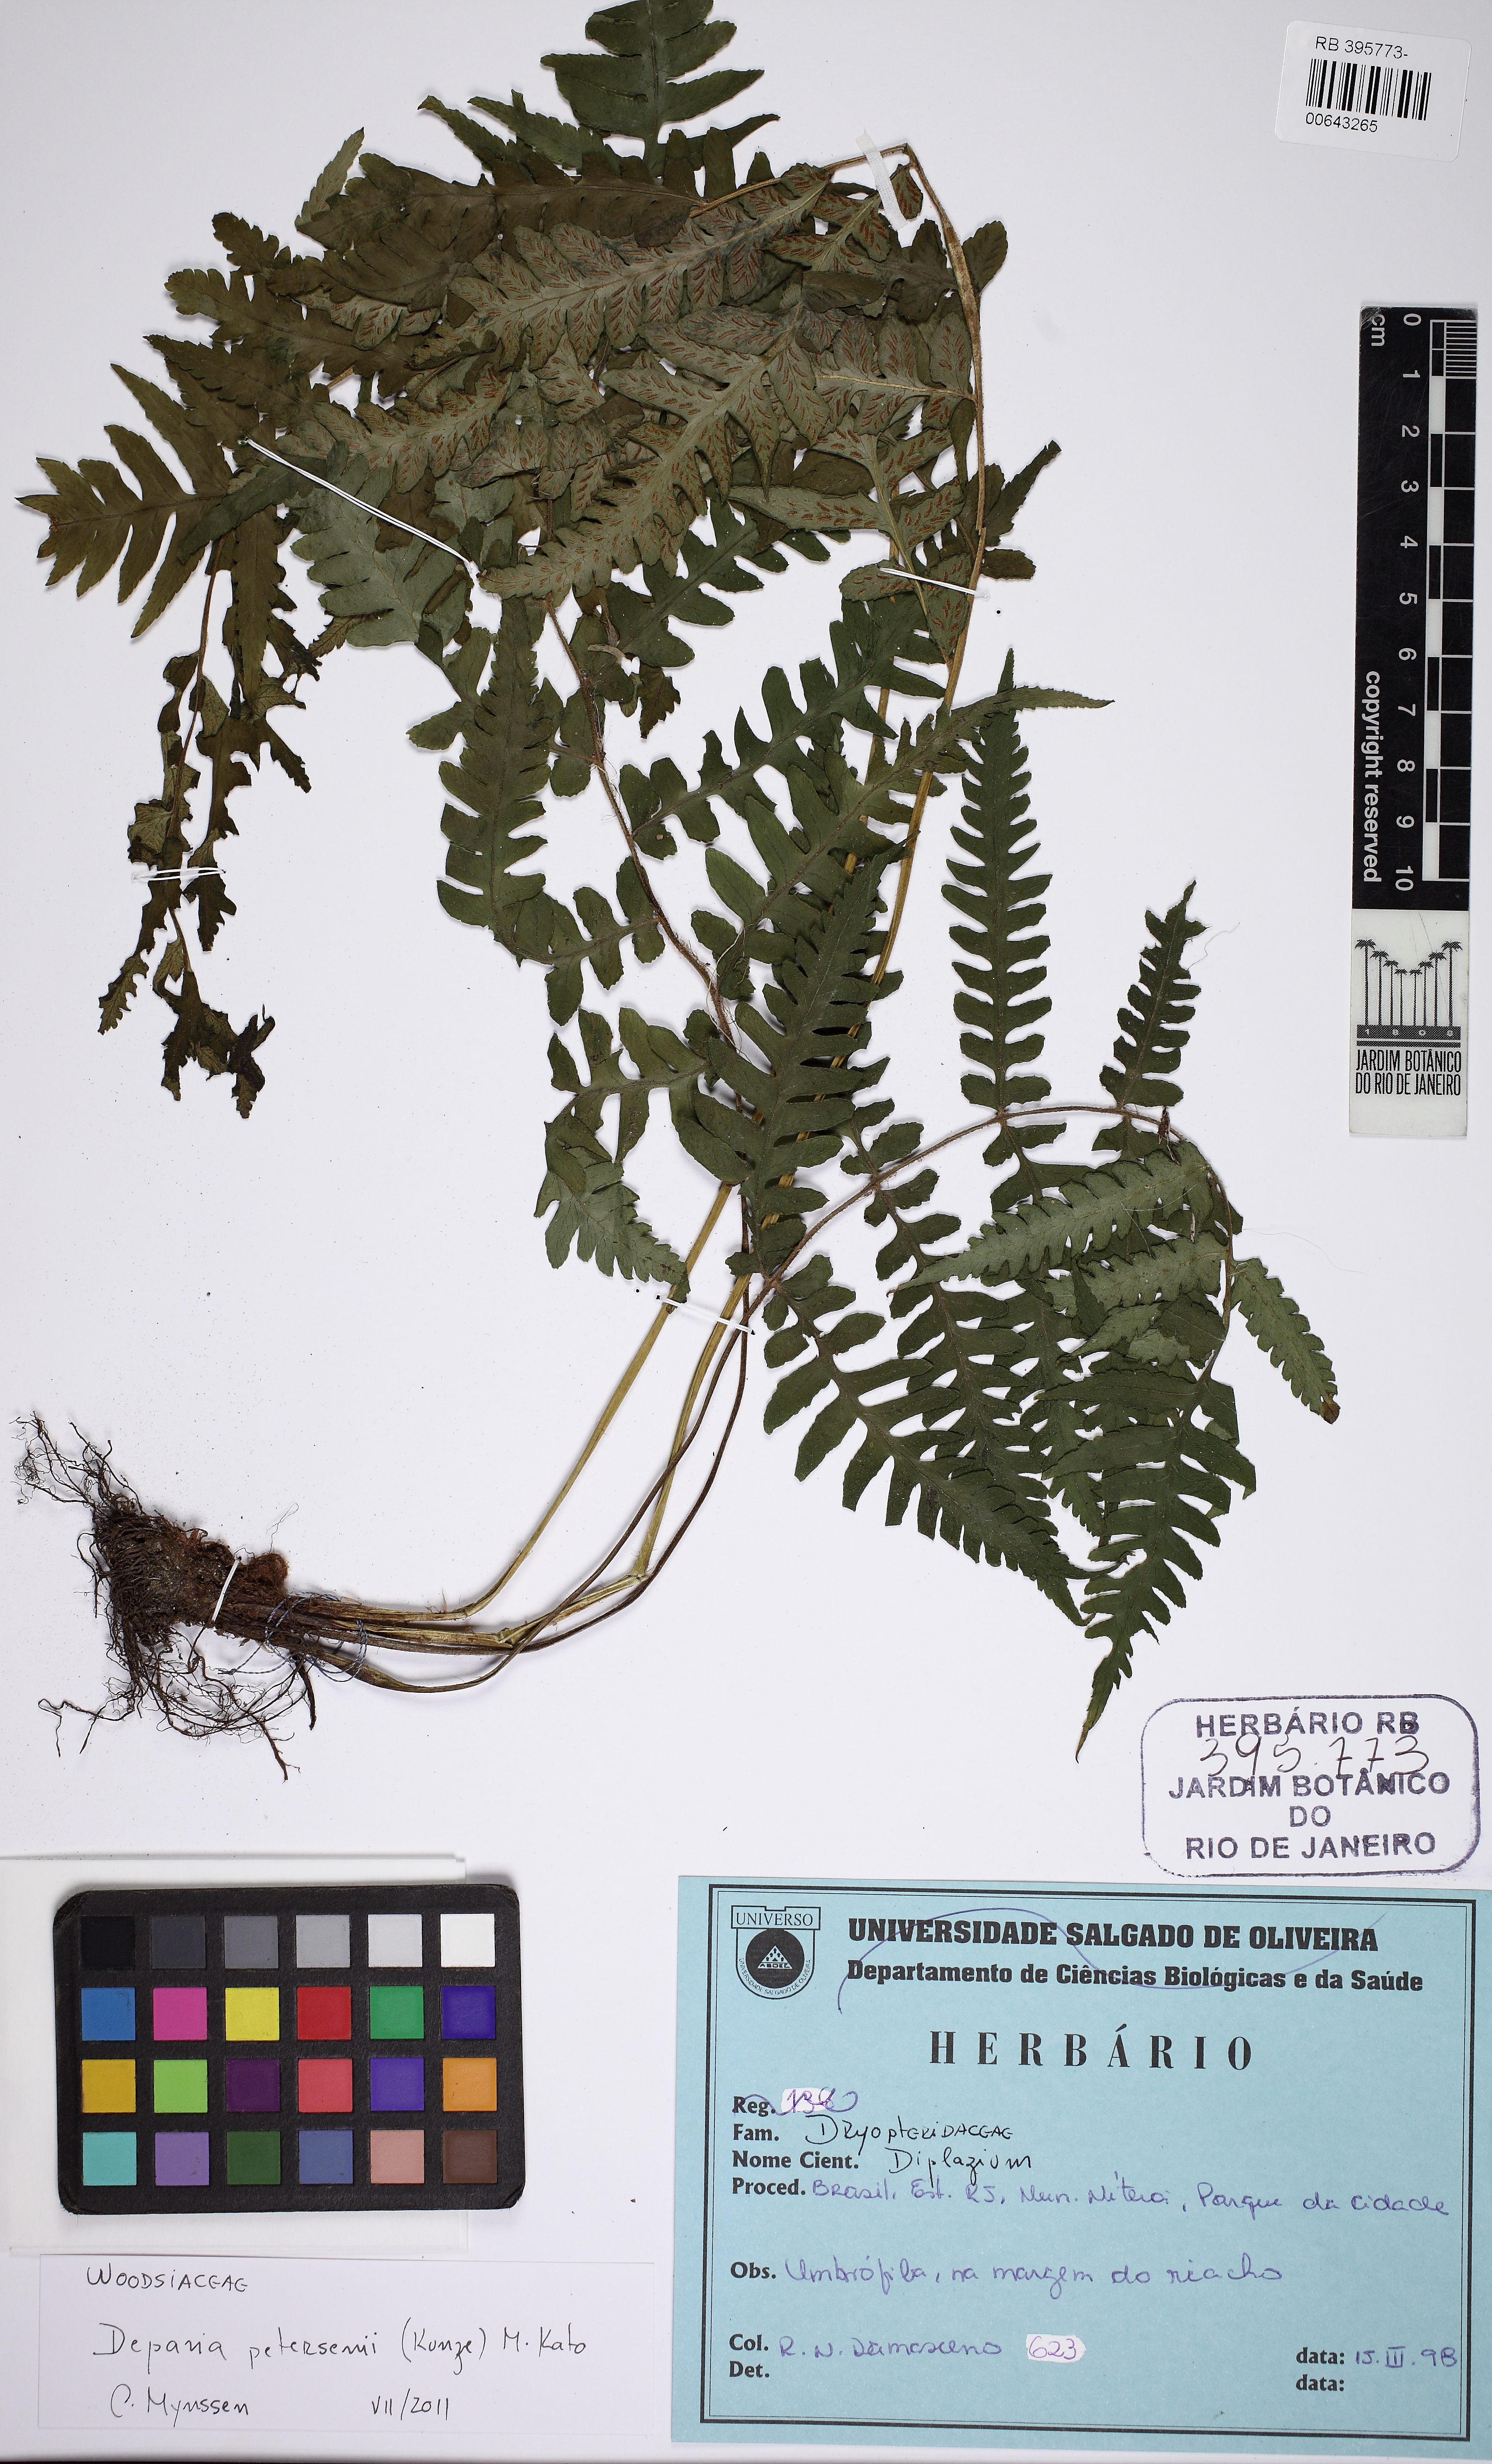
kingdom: Plantae
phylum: Tracheophyta
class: Polypodiopsida
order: Polypodiales
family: Athyriaceae
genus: Deparia
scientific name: Deparia petersenii
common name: Japanese false spleenwort
